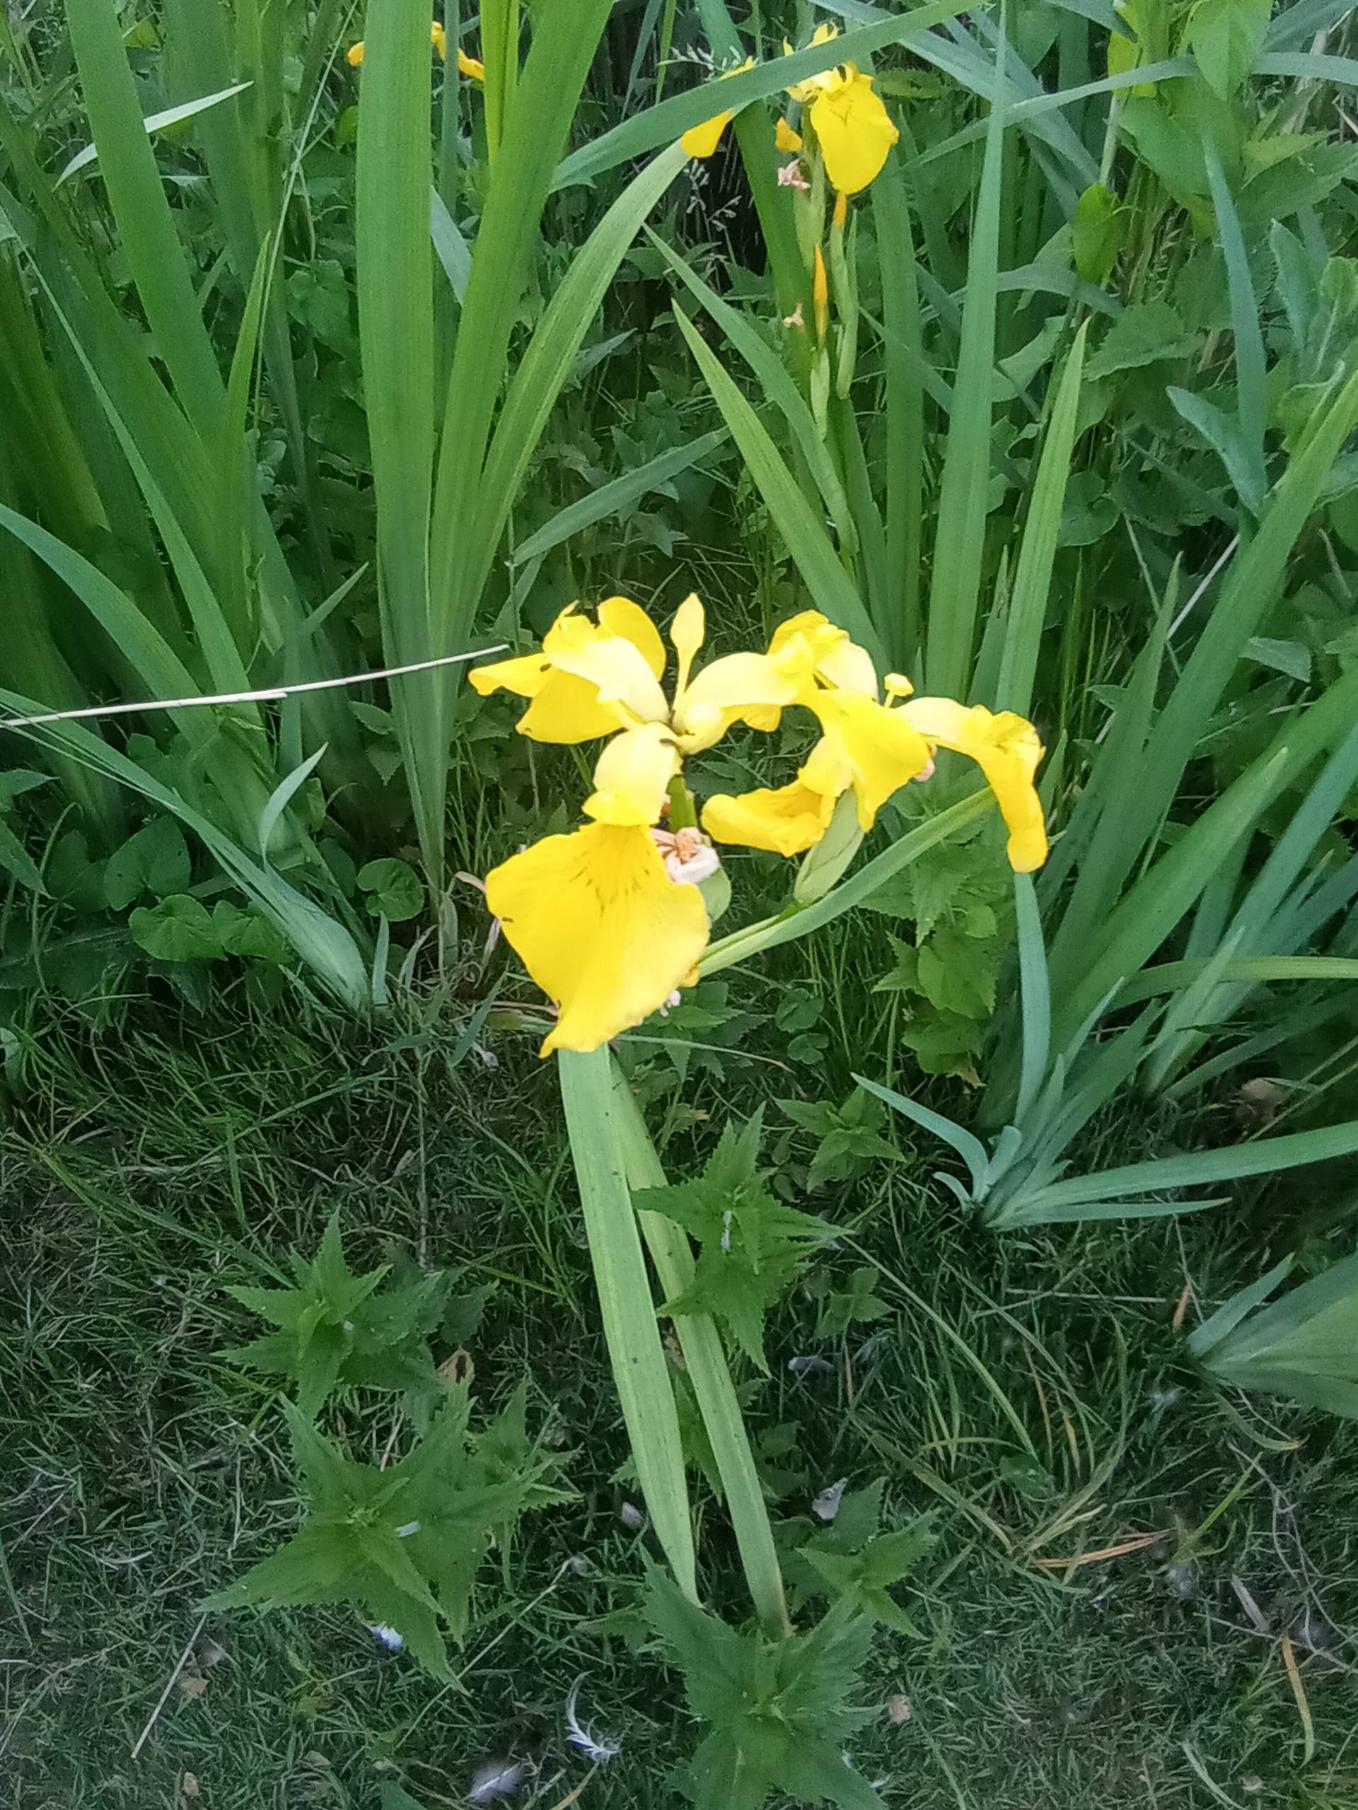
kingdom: Plantae
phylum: Tracheophyta
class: Liliopsida
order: Asparagales
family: Iridaceae
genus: Iris
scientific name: Iris pseudacorus
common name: Gul iris
